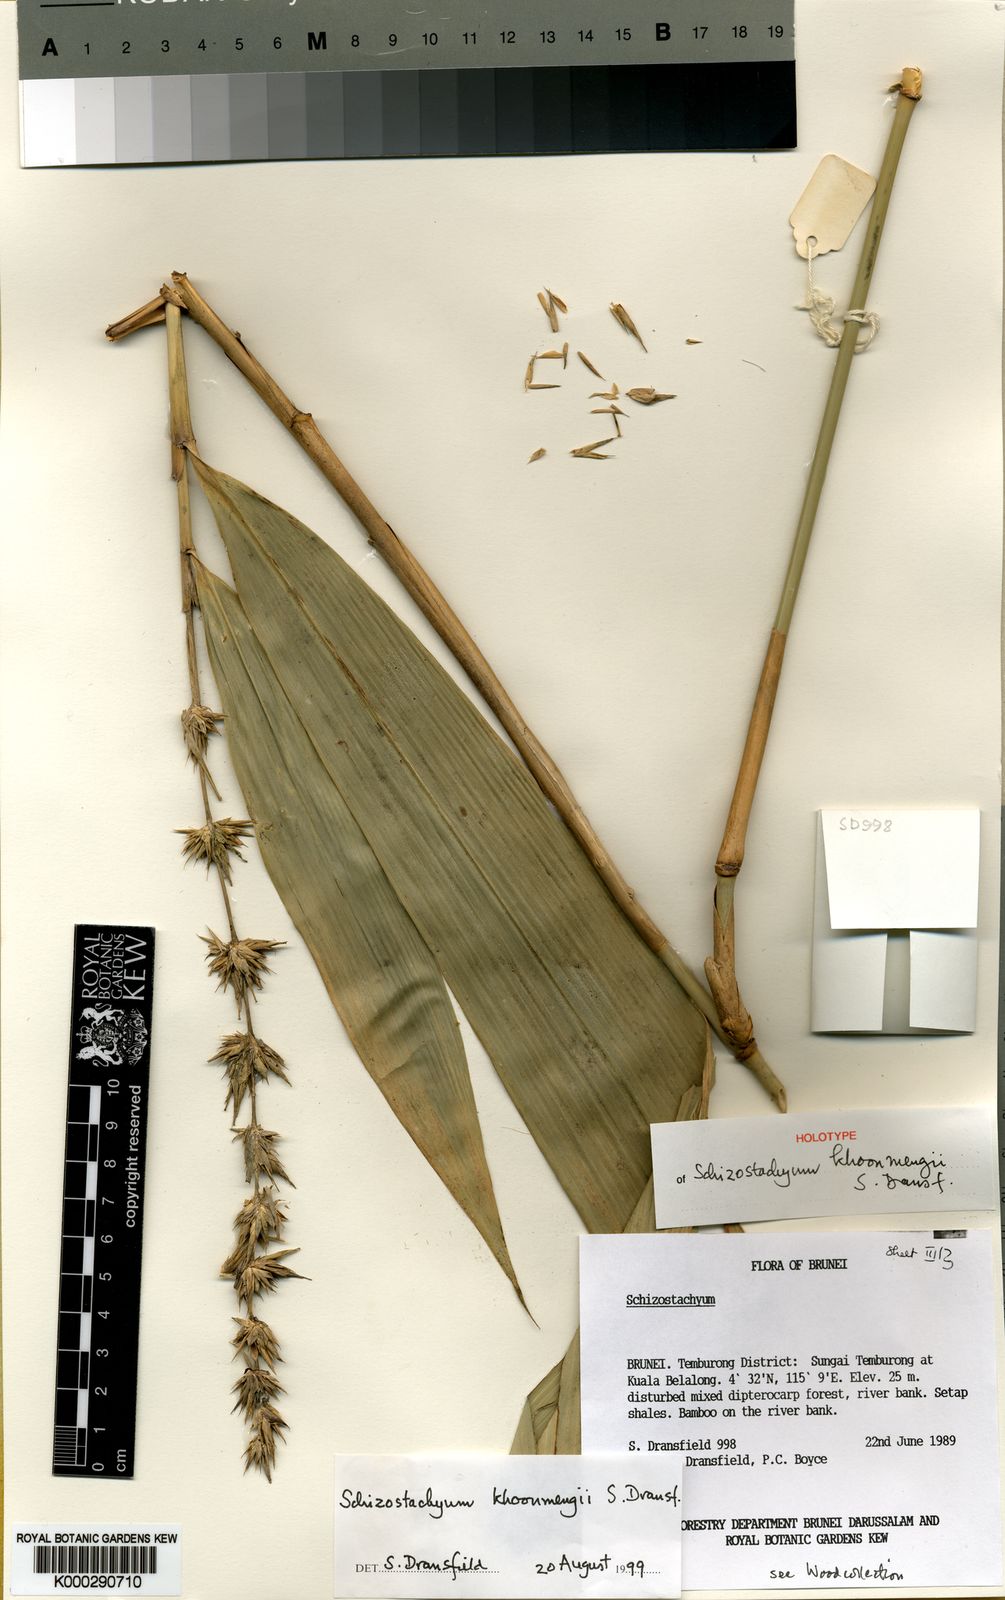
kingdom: Plantae
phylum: Tracheophyta
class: Liliopsida
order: Poales
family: Poaceae
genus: Schizostachyum
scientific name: Schizostachyum khoonmengii
